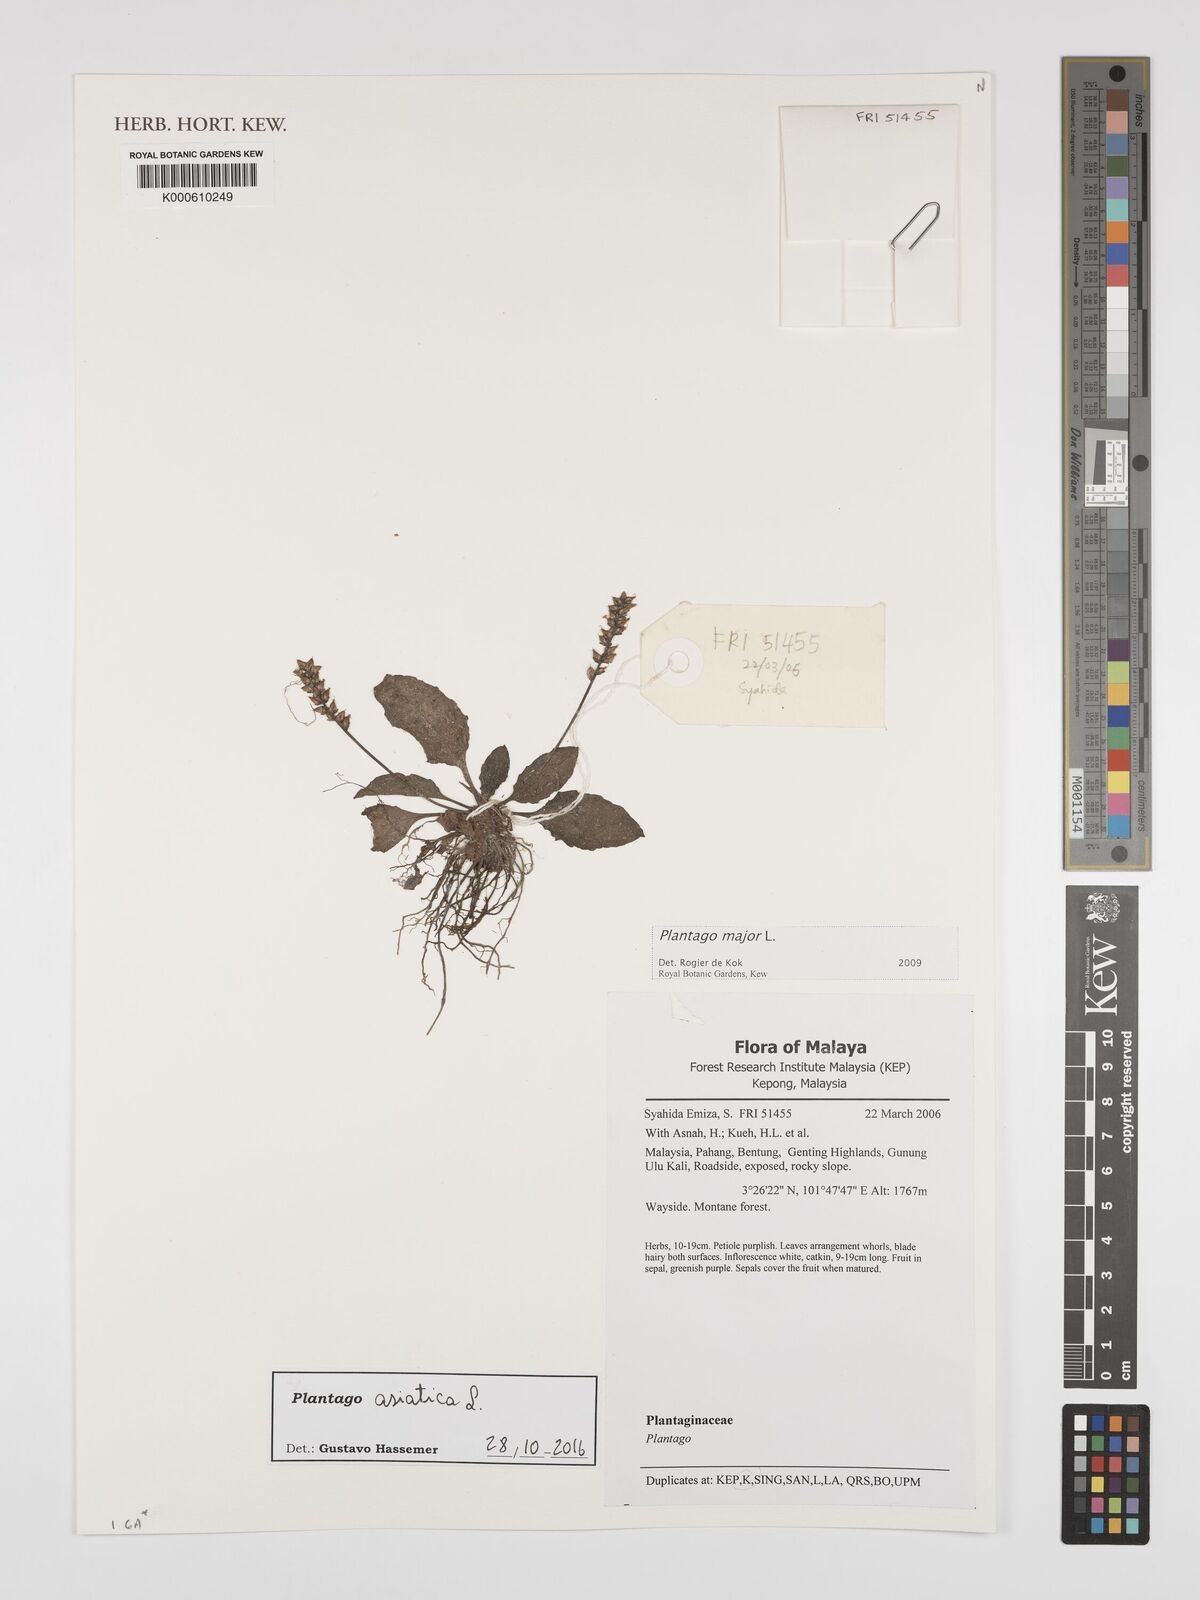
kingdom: Plantae
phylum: Tracheophyta
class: Magnoliopsida
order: Lamiales
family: Plantaginaceae
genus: Plantago
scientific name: Plantago asiatica
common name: Psyllium
